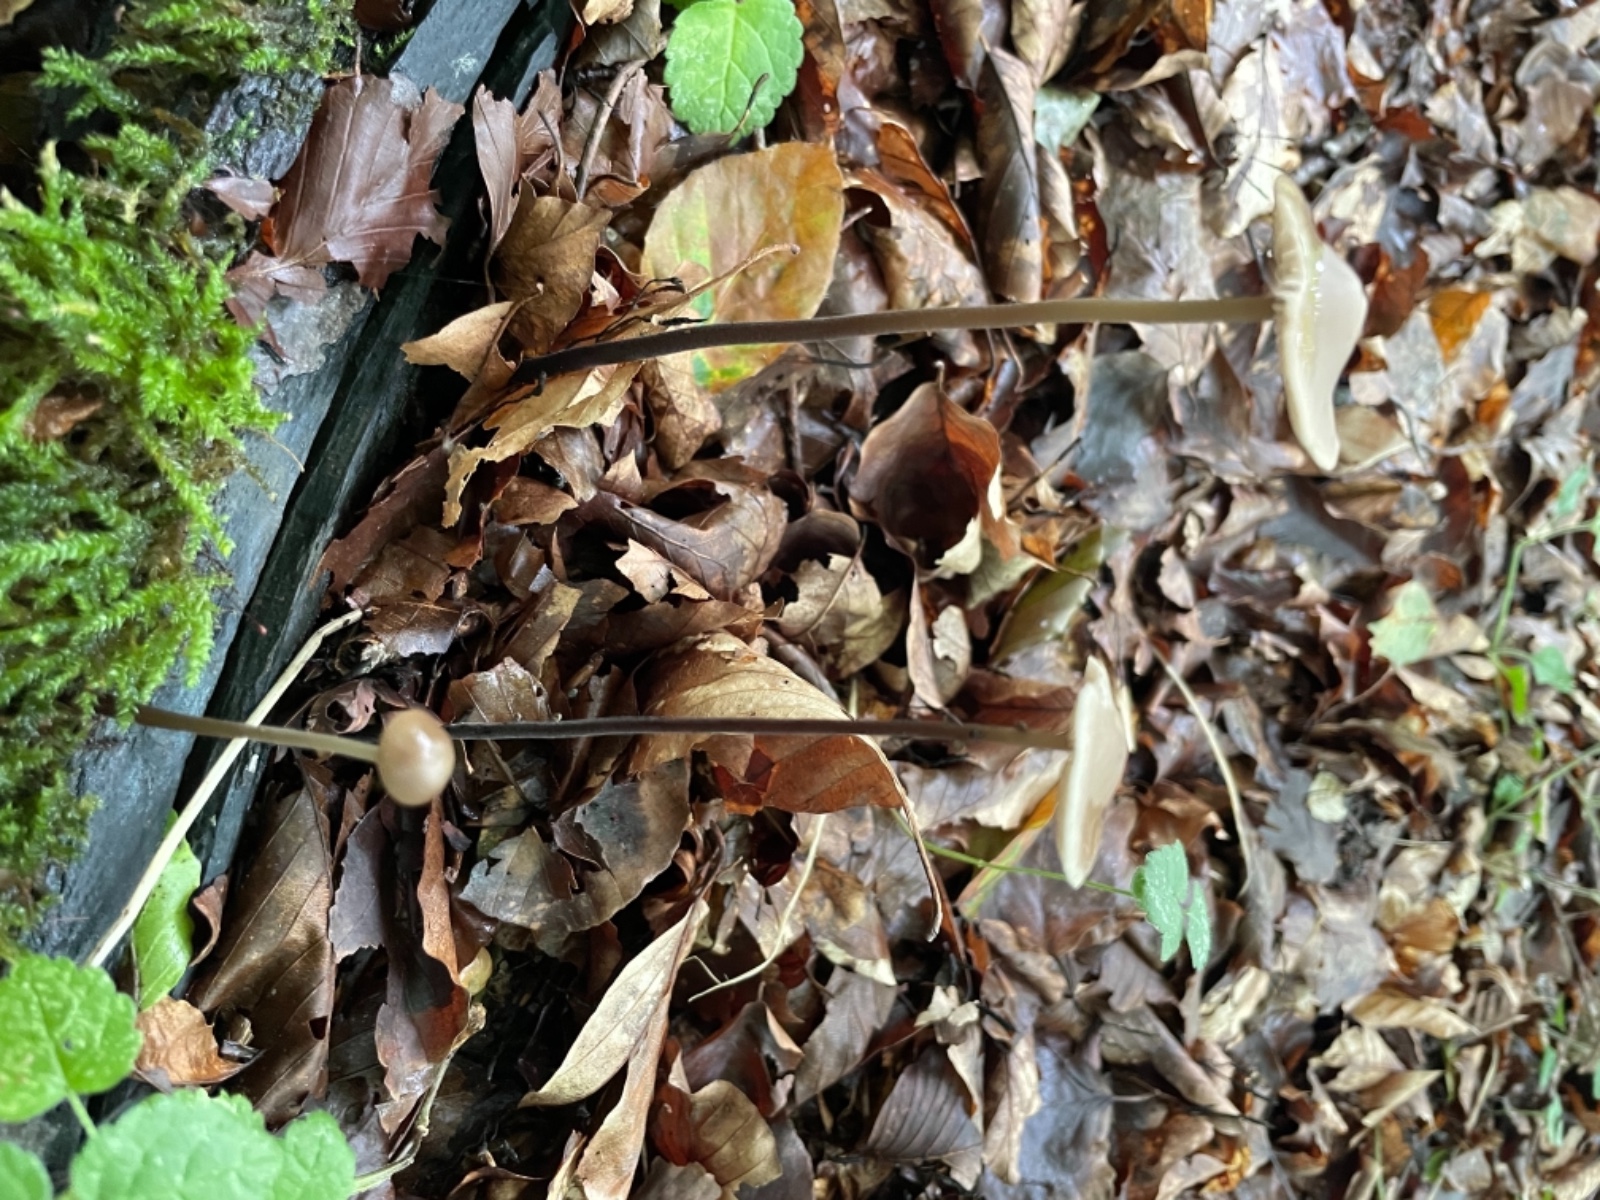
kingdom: Fungi
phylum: Basidiomycota
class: Agaricomycetes
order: Agaricales
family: Omphalotaceae
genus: Mycetinis
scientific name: Mycetinis alliaceus
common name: stor løghat
